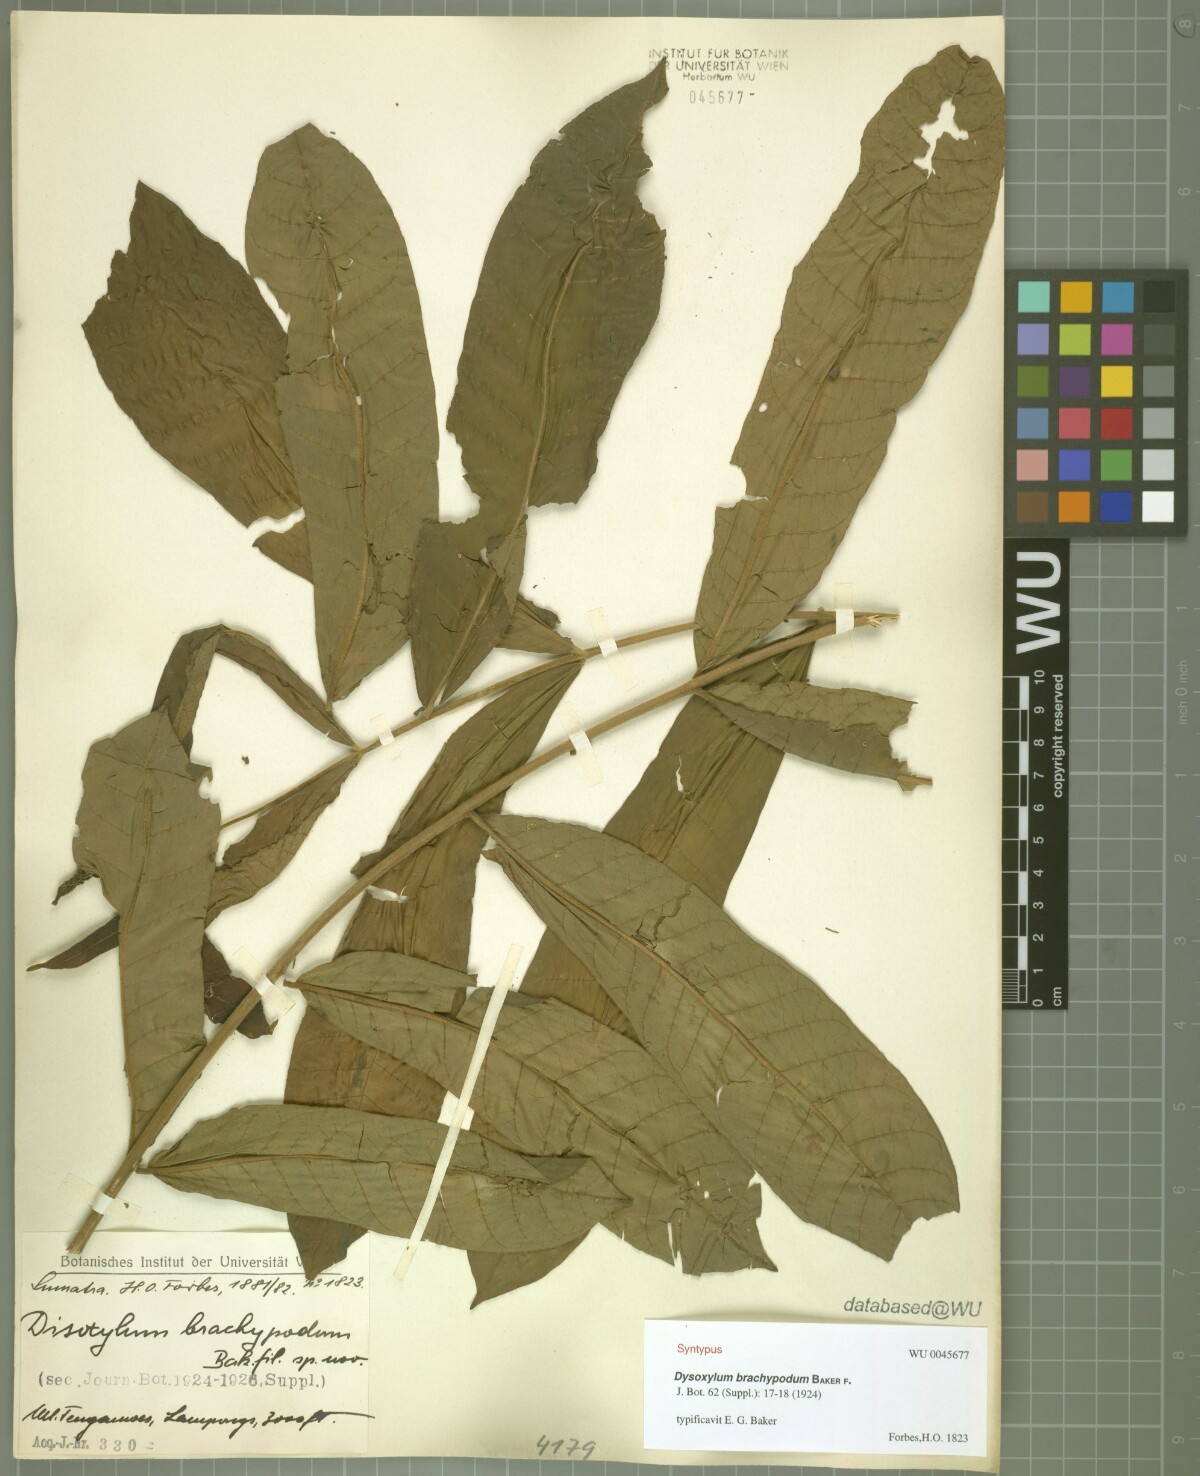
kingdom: Plantae
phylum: Tracheophyta
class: Magnoliopsida
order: Sapindales
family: Meliaceae
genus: Epicharis
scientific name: Epicharis parasitica
